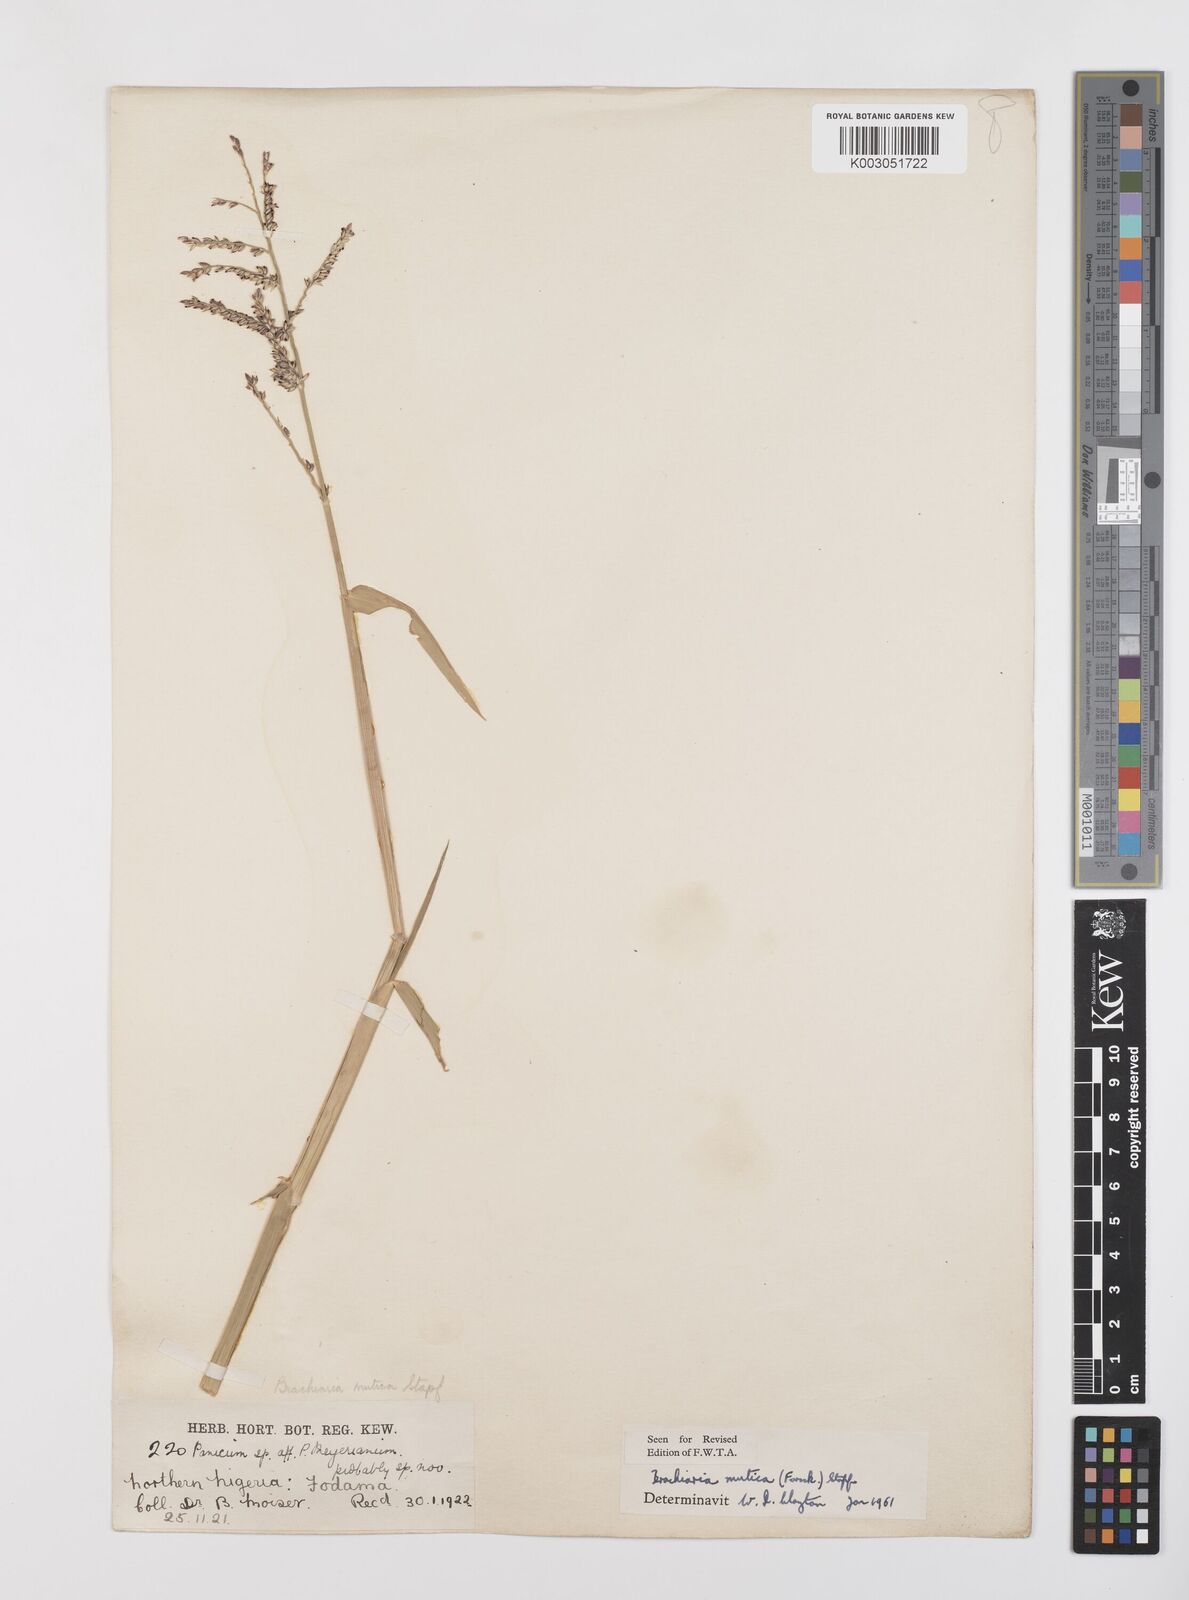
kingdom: Plantae
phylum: Tracheophyta
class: Liliopsida
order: Poales
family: Poaceae
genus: Urochloa
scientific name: Urochloa mutica
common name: Para grass
